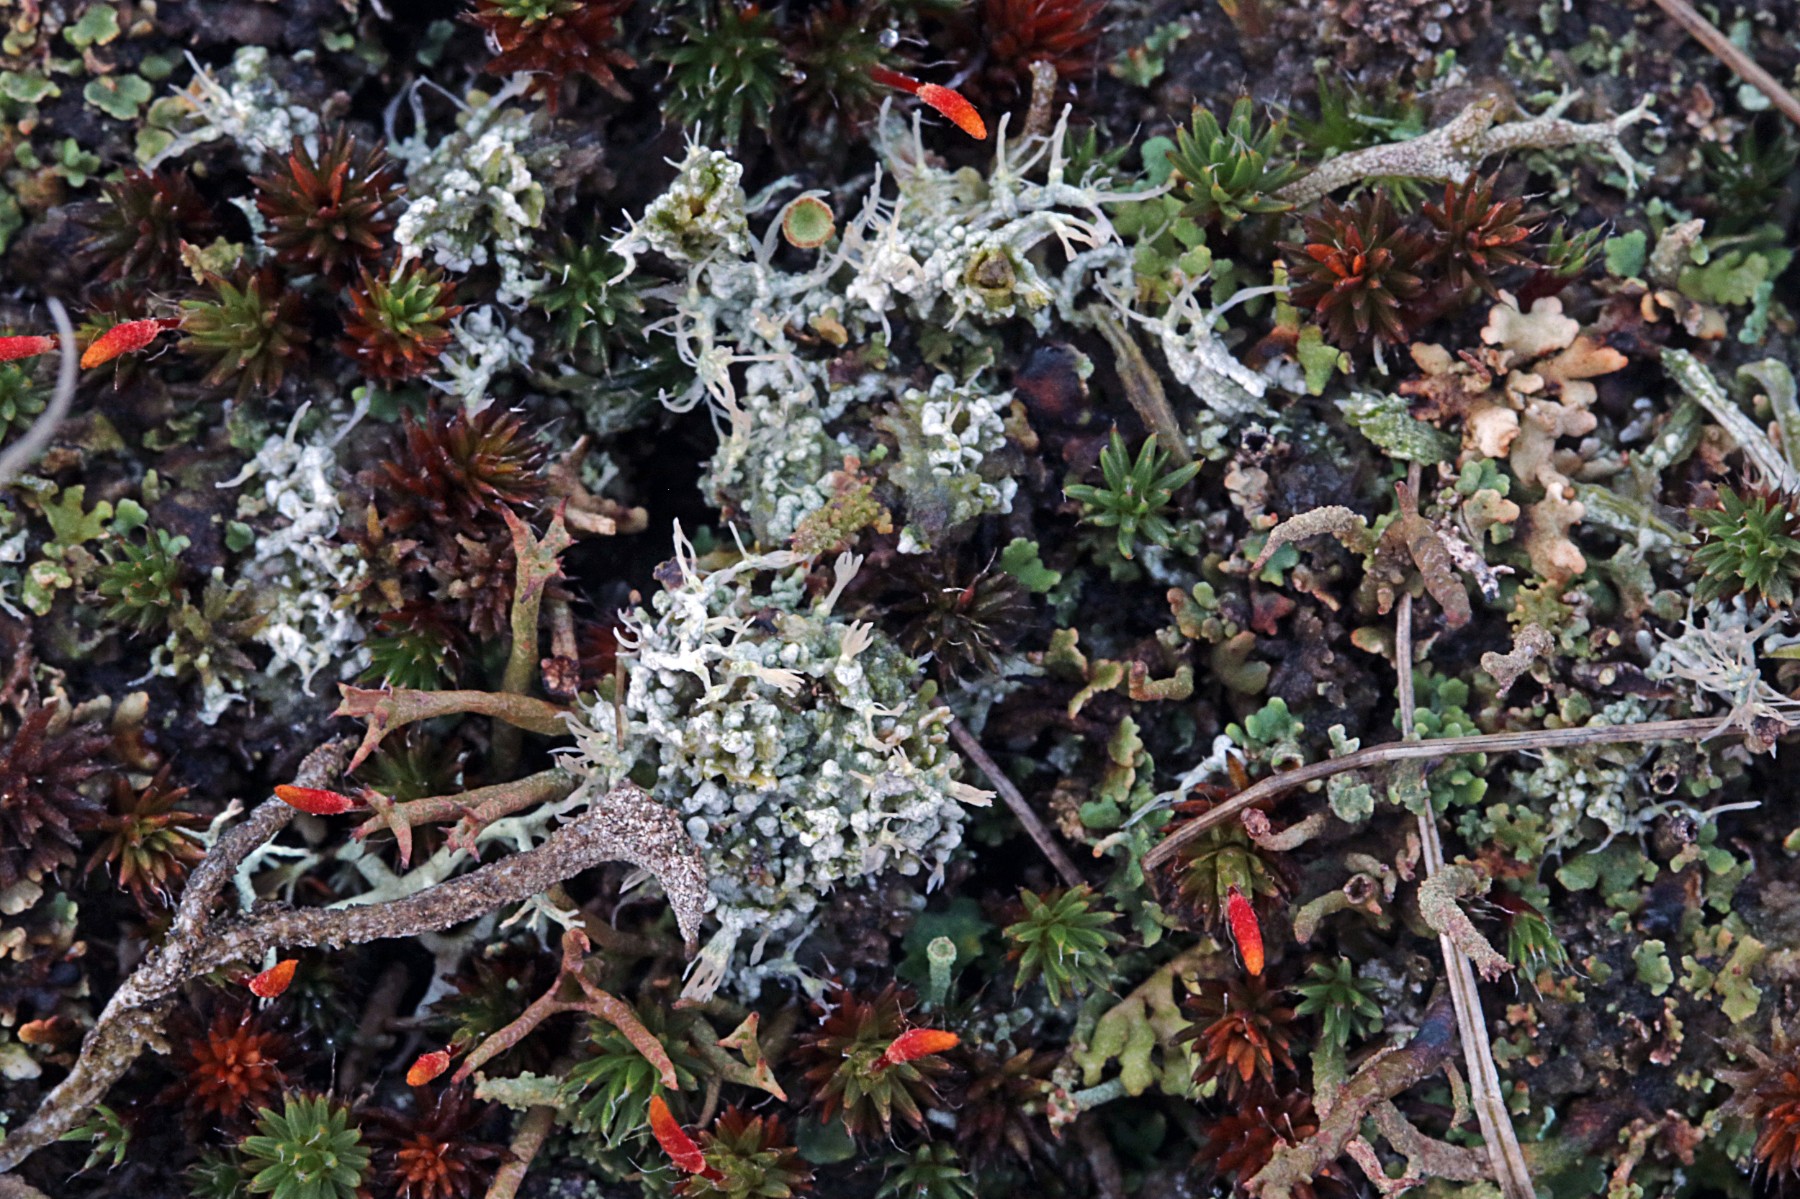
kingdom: Fungi
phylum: Ascomycota
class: Lecanoromycetes
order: Pertusariales
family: Ochrolechiaceae
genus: Ochrolechia
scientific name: Ochrolechia frigida
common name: fjeld-blegskivelav
